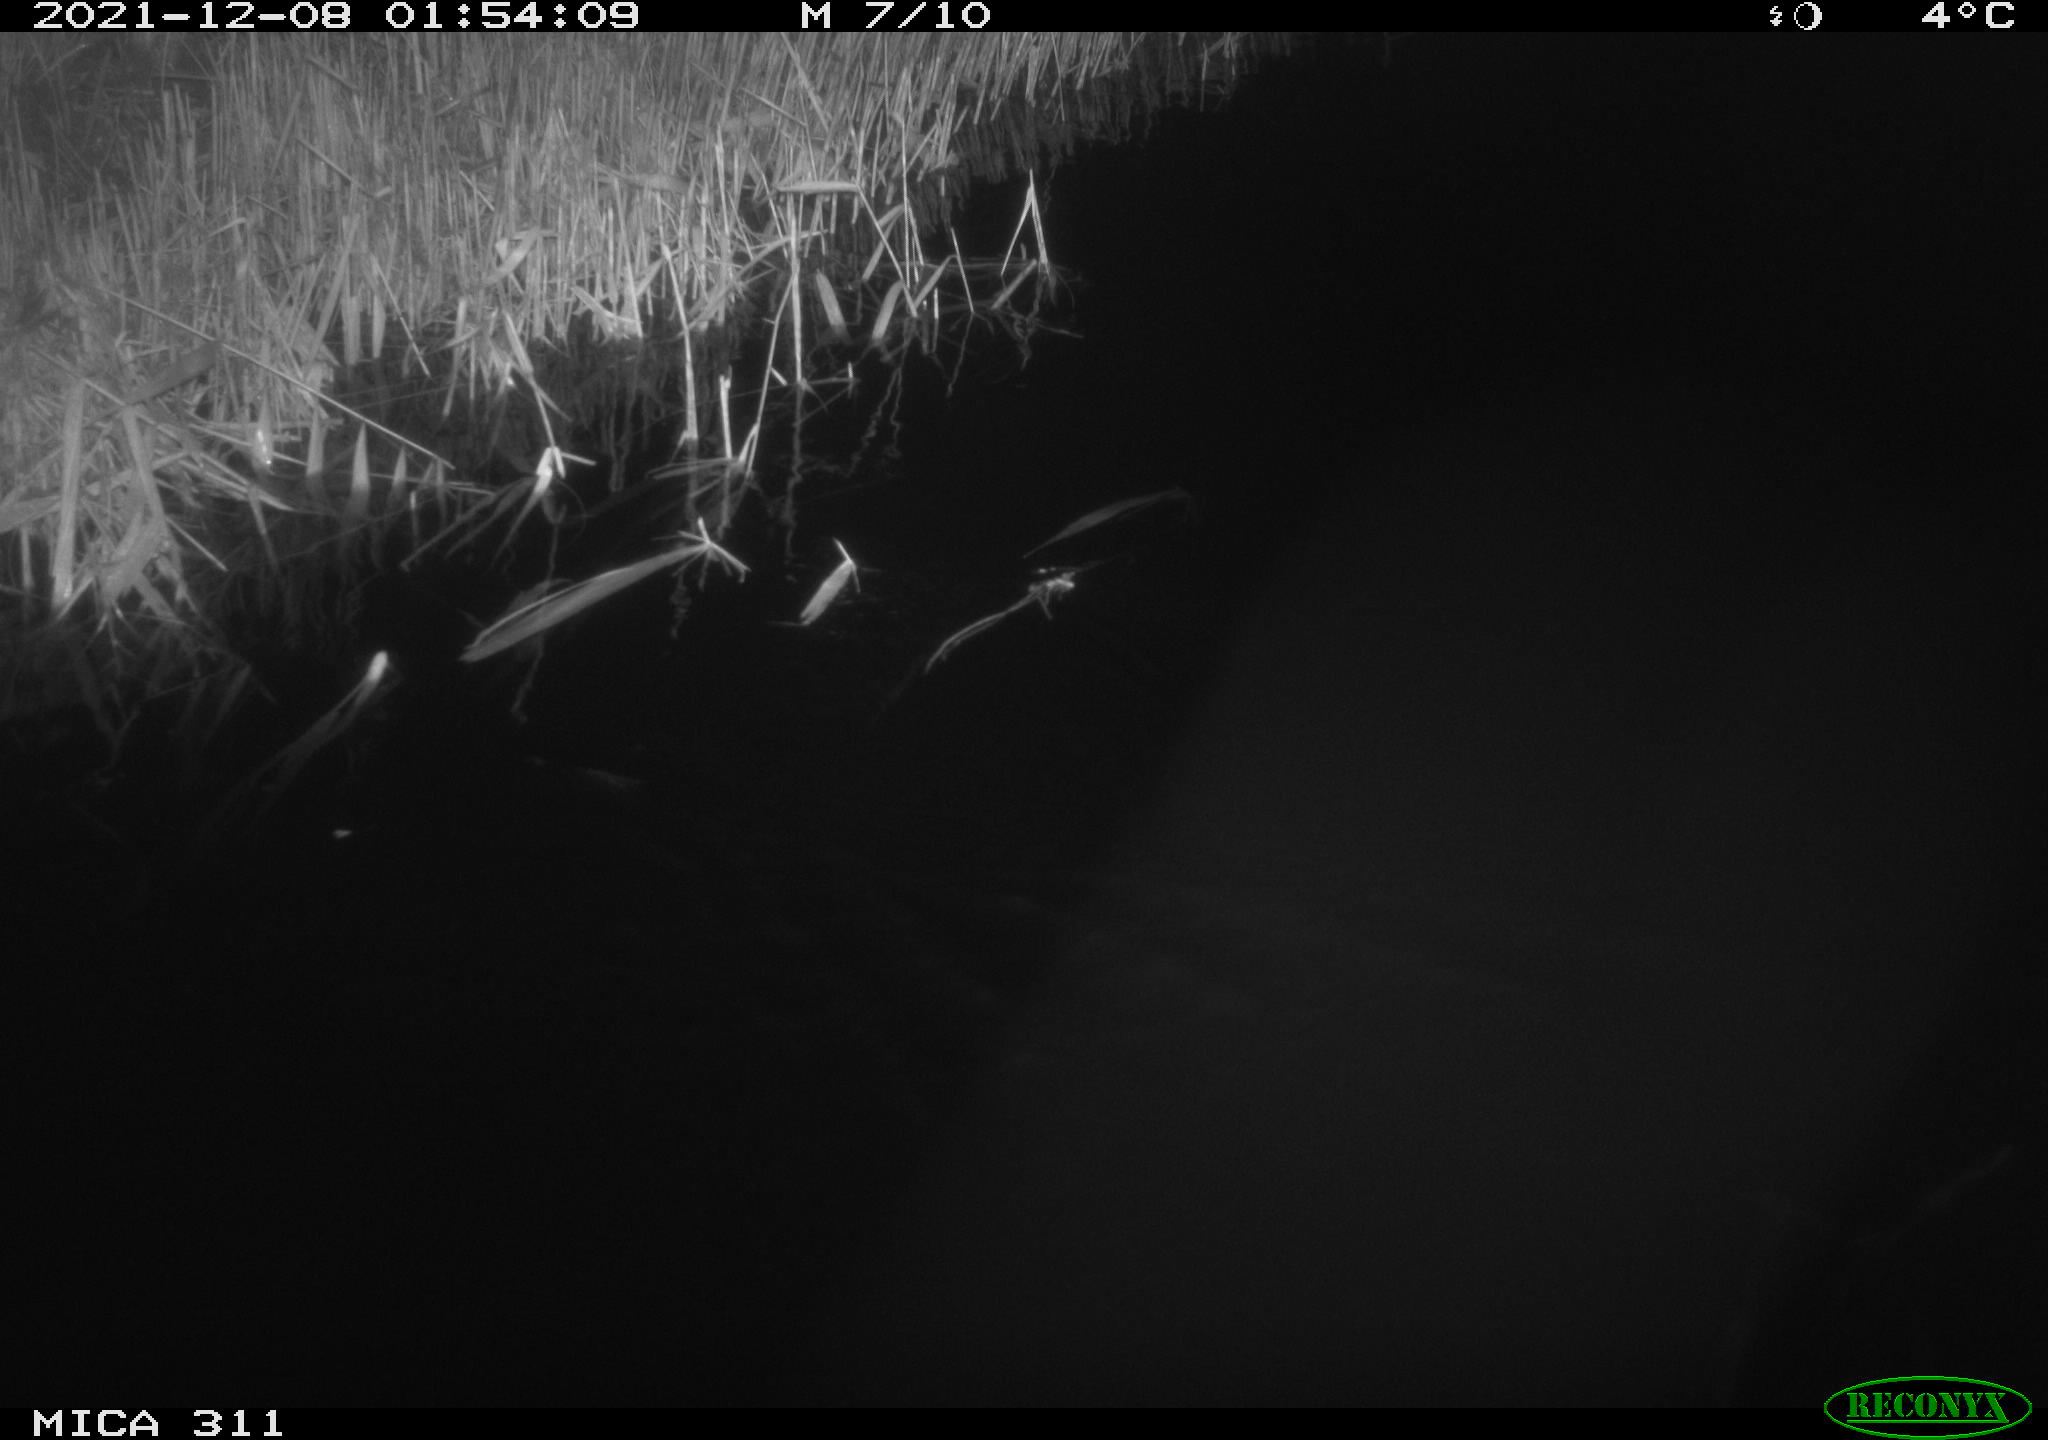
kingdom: Animalia
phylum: Chordata
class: Mammalia
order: Rodentia
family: Muridae
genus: Rattus
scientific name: Rattus norvegicus
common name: Brown rat
